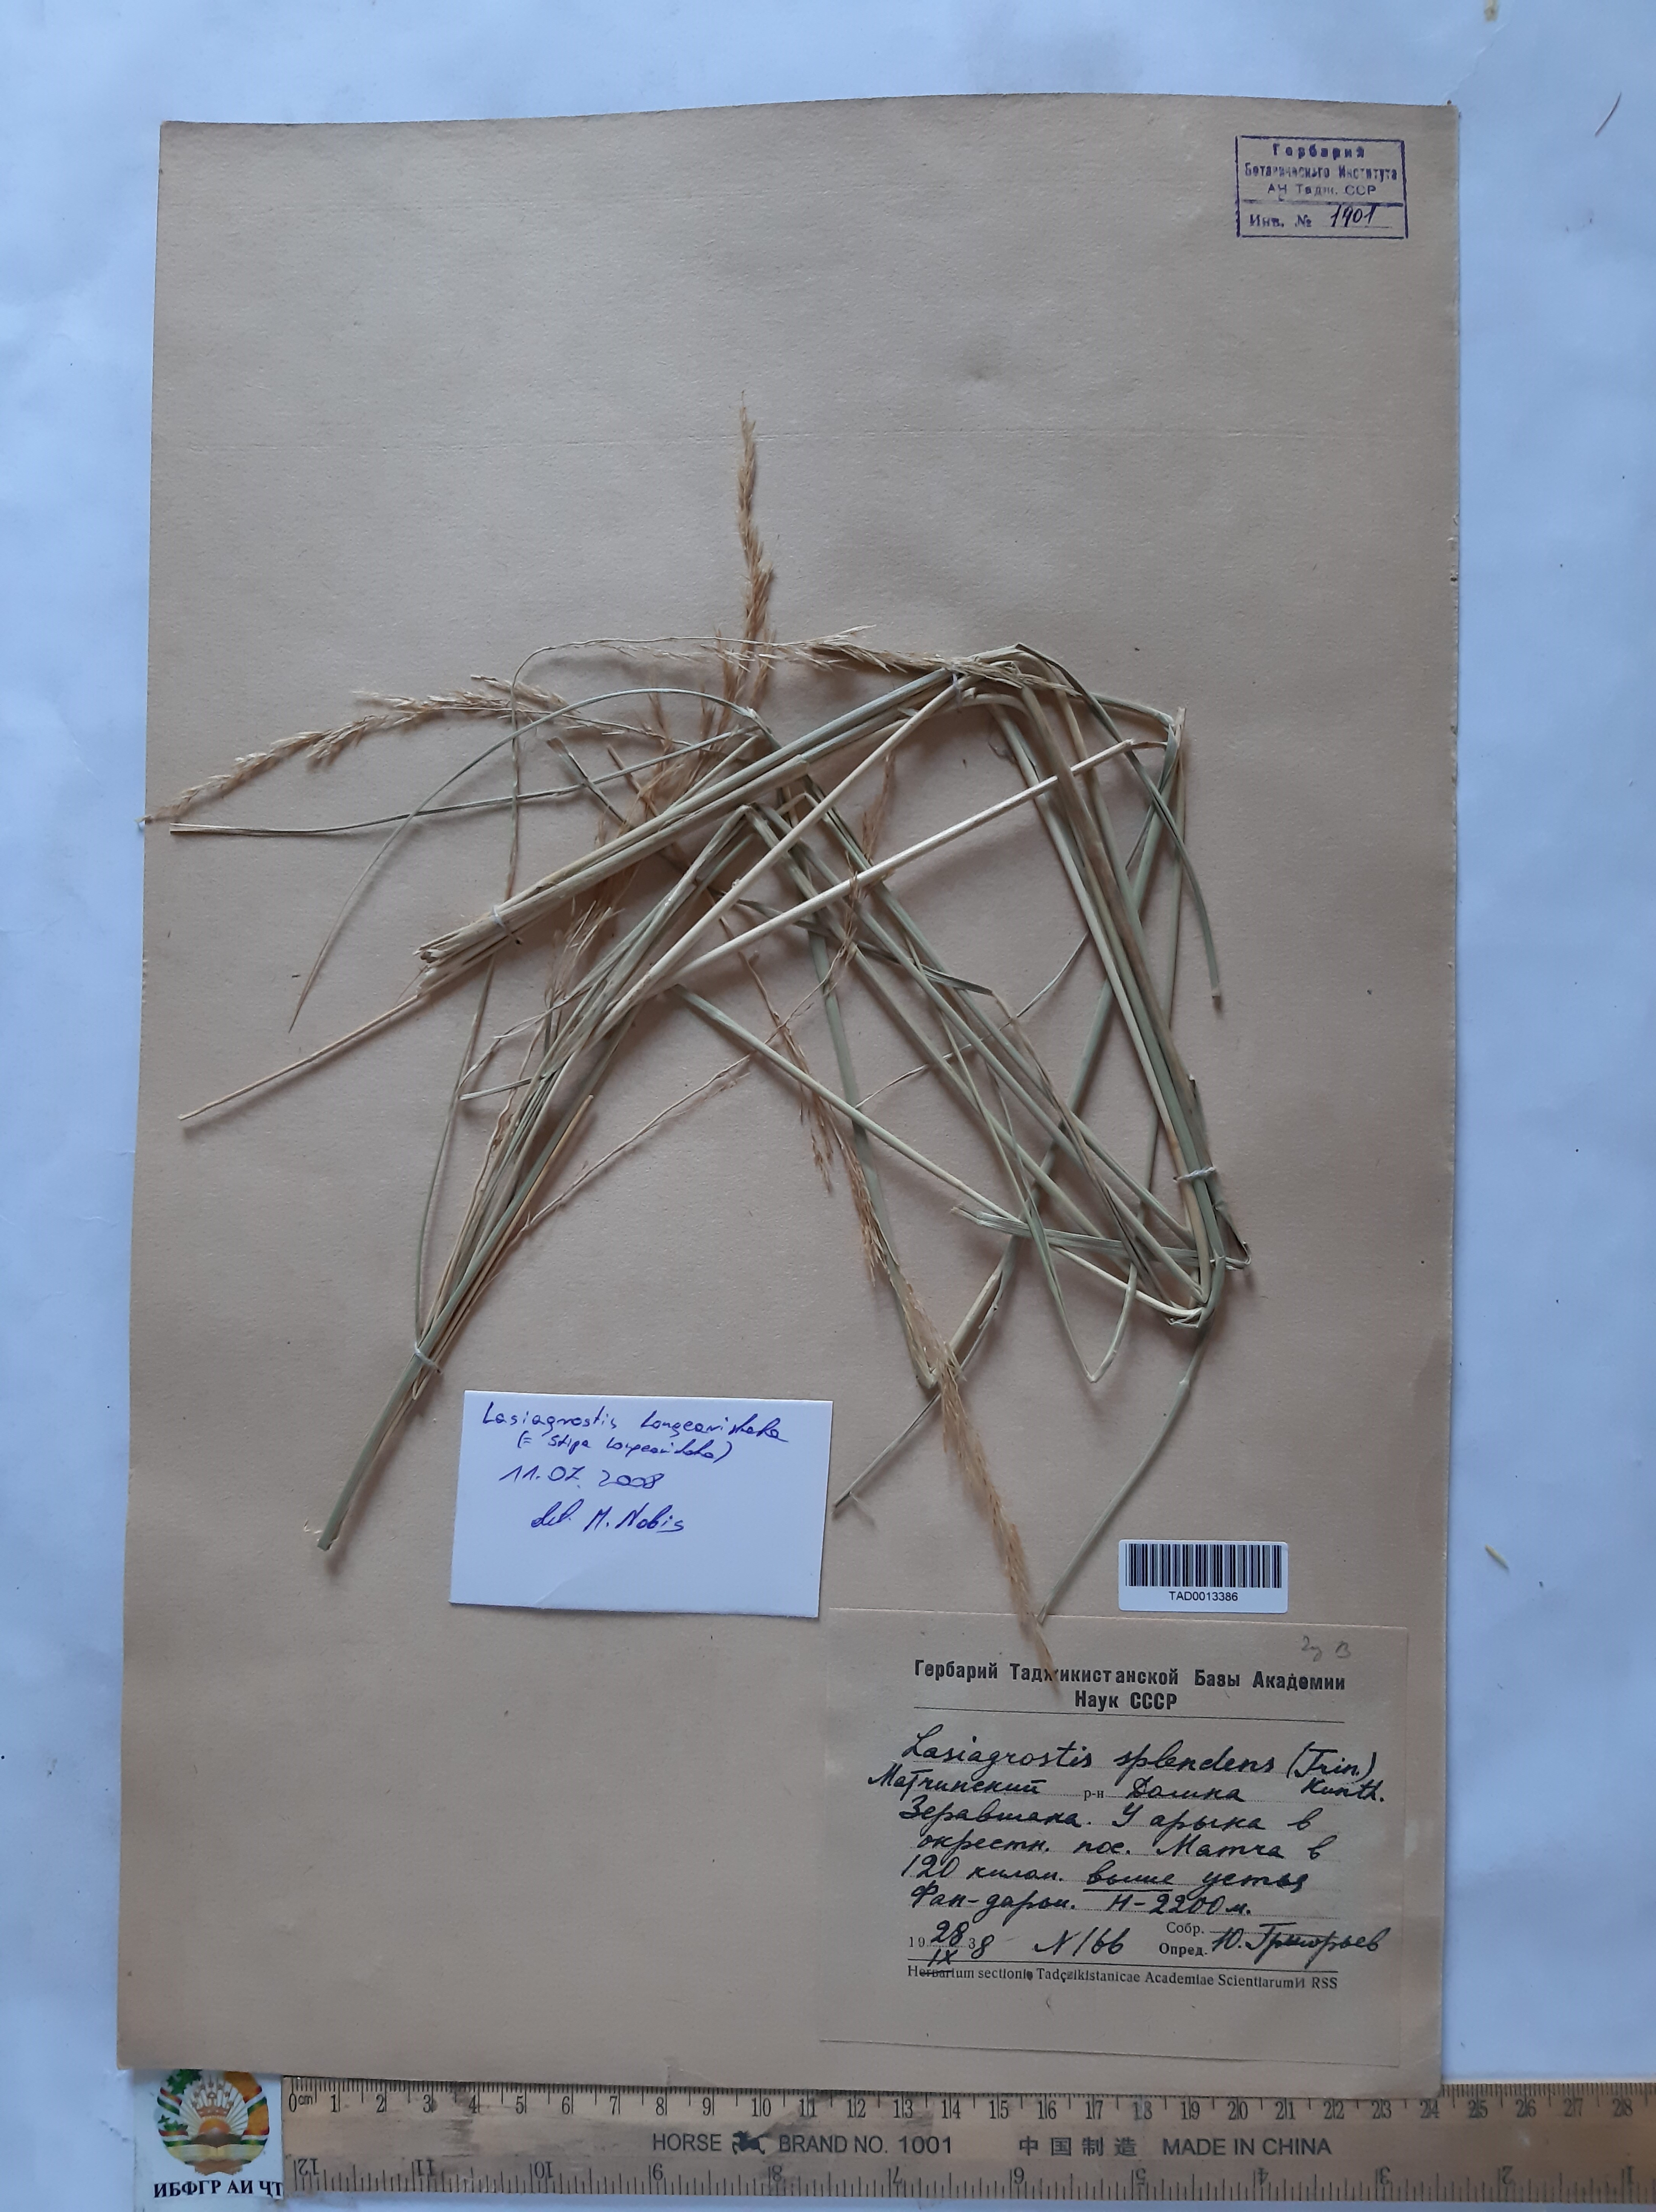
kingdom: Plantae
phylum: Tracheophyta
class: Liliopsida
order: Poales
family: Poaceae
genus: Achnatherum
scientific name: Achnatherum turcomanicum
